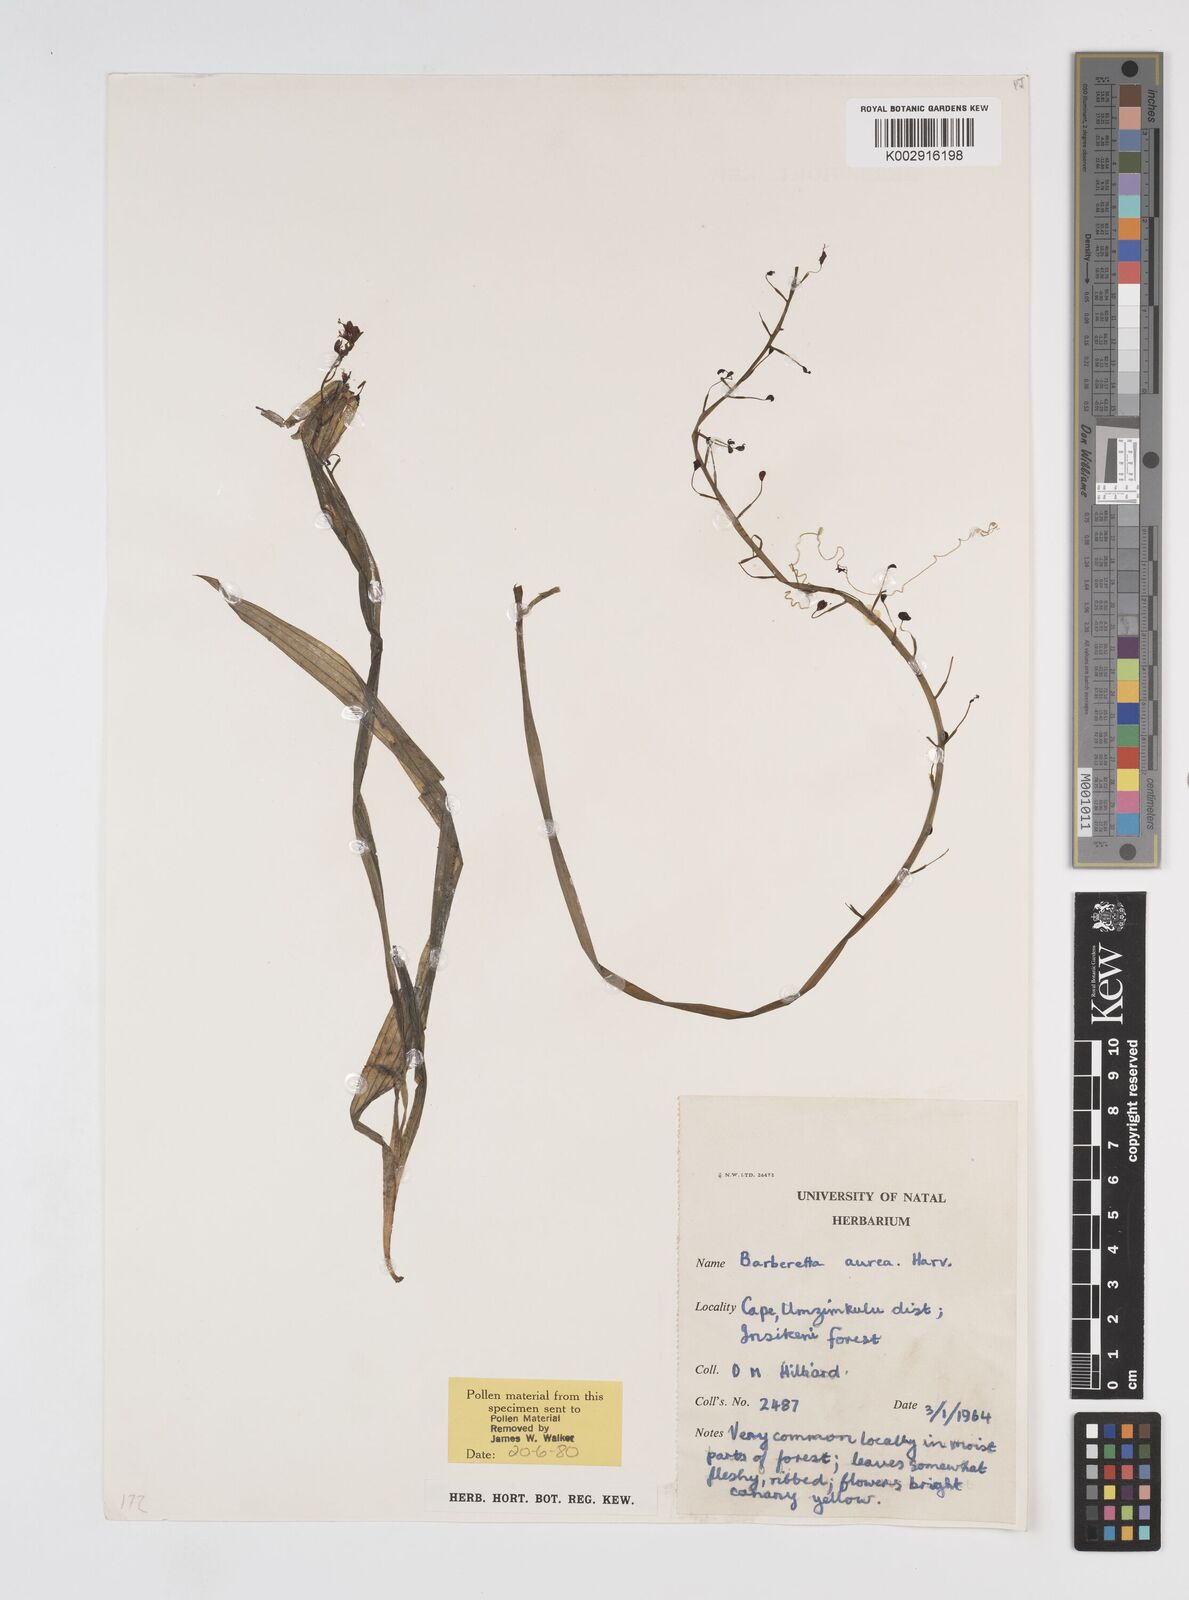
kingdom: Plantae
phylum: Tracheophyta
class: Liliopsida
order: Commelinales
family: Haemodoraceae
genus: Barberetta
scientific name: Barberetta aurea
